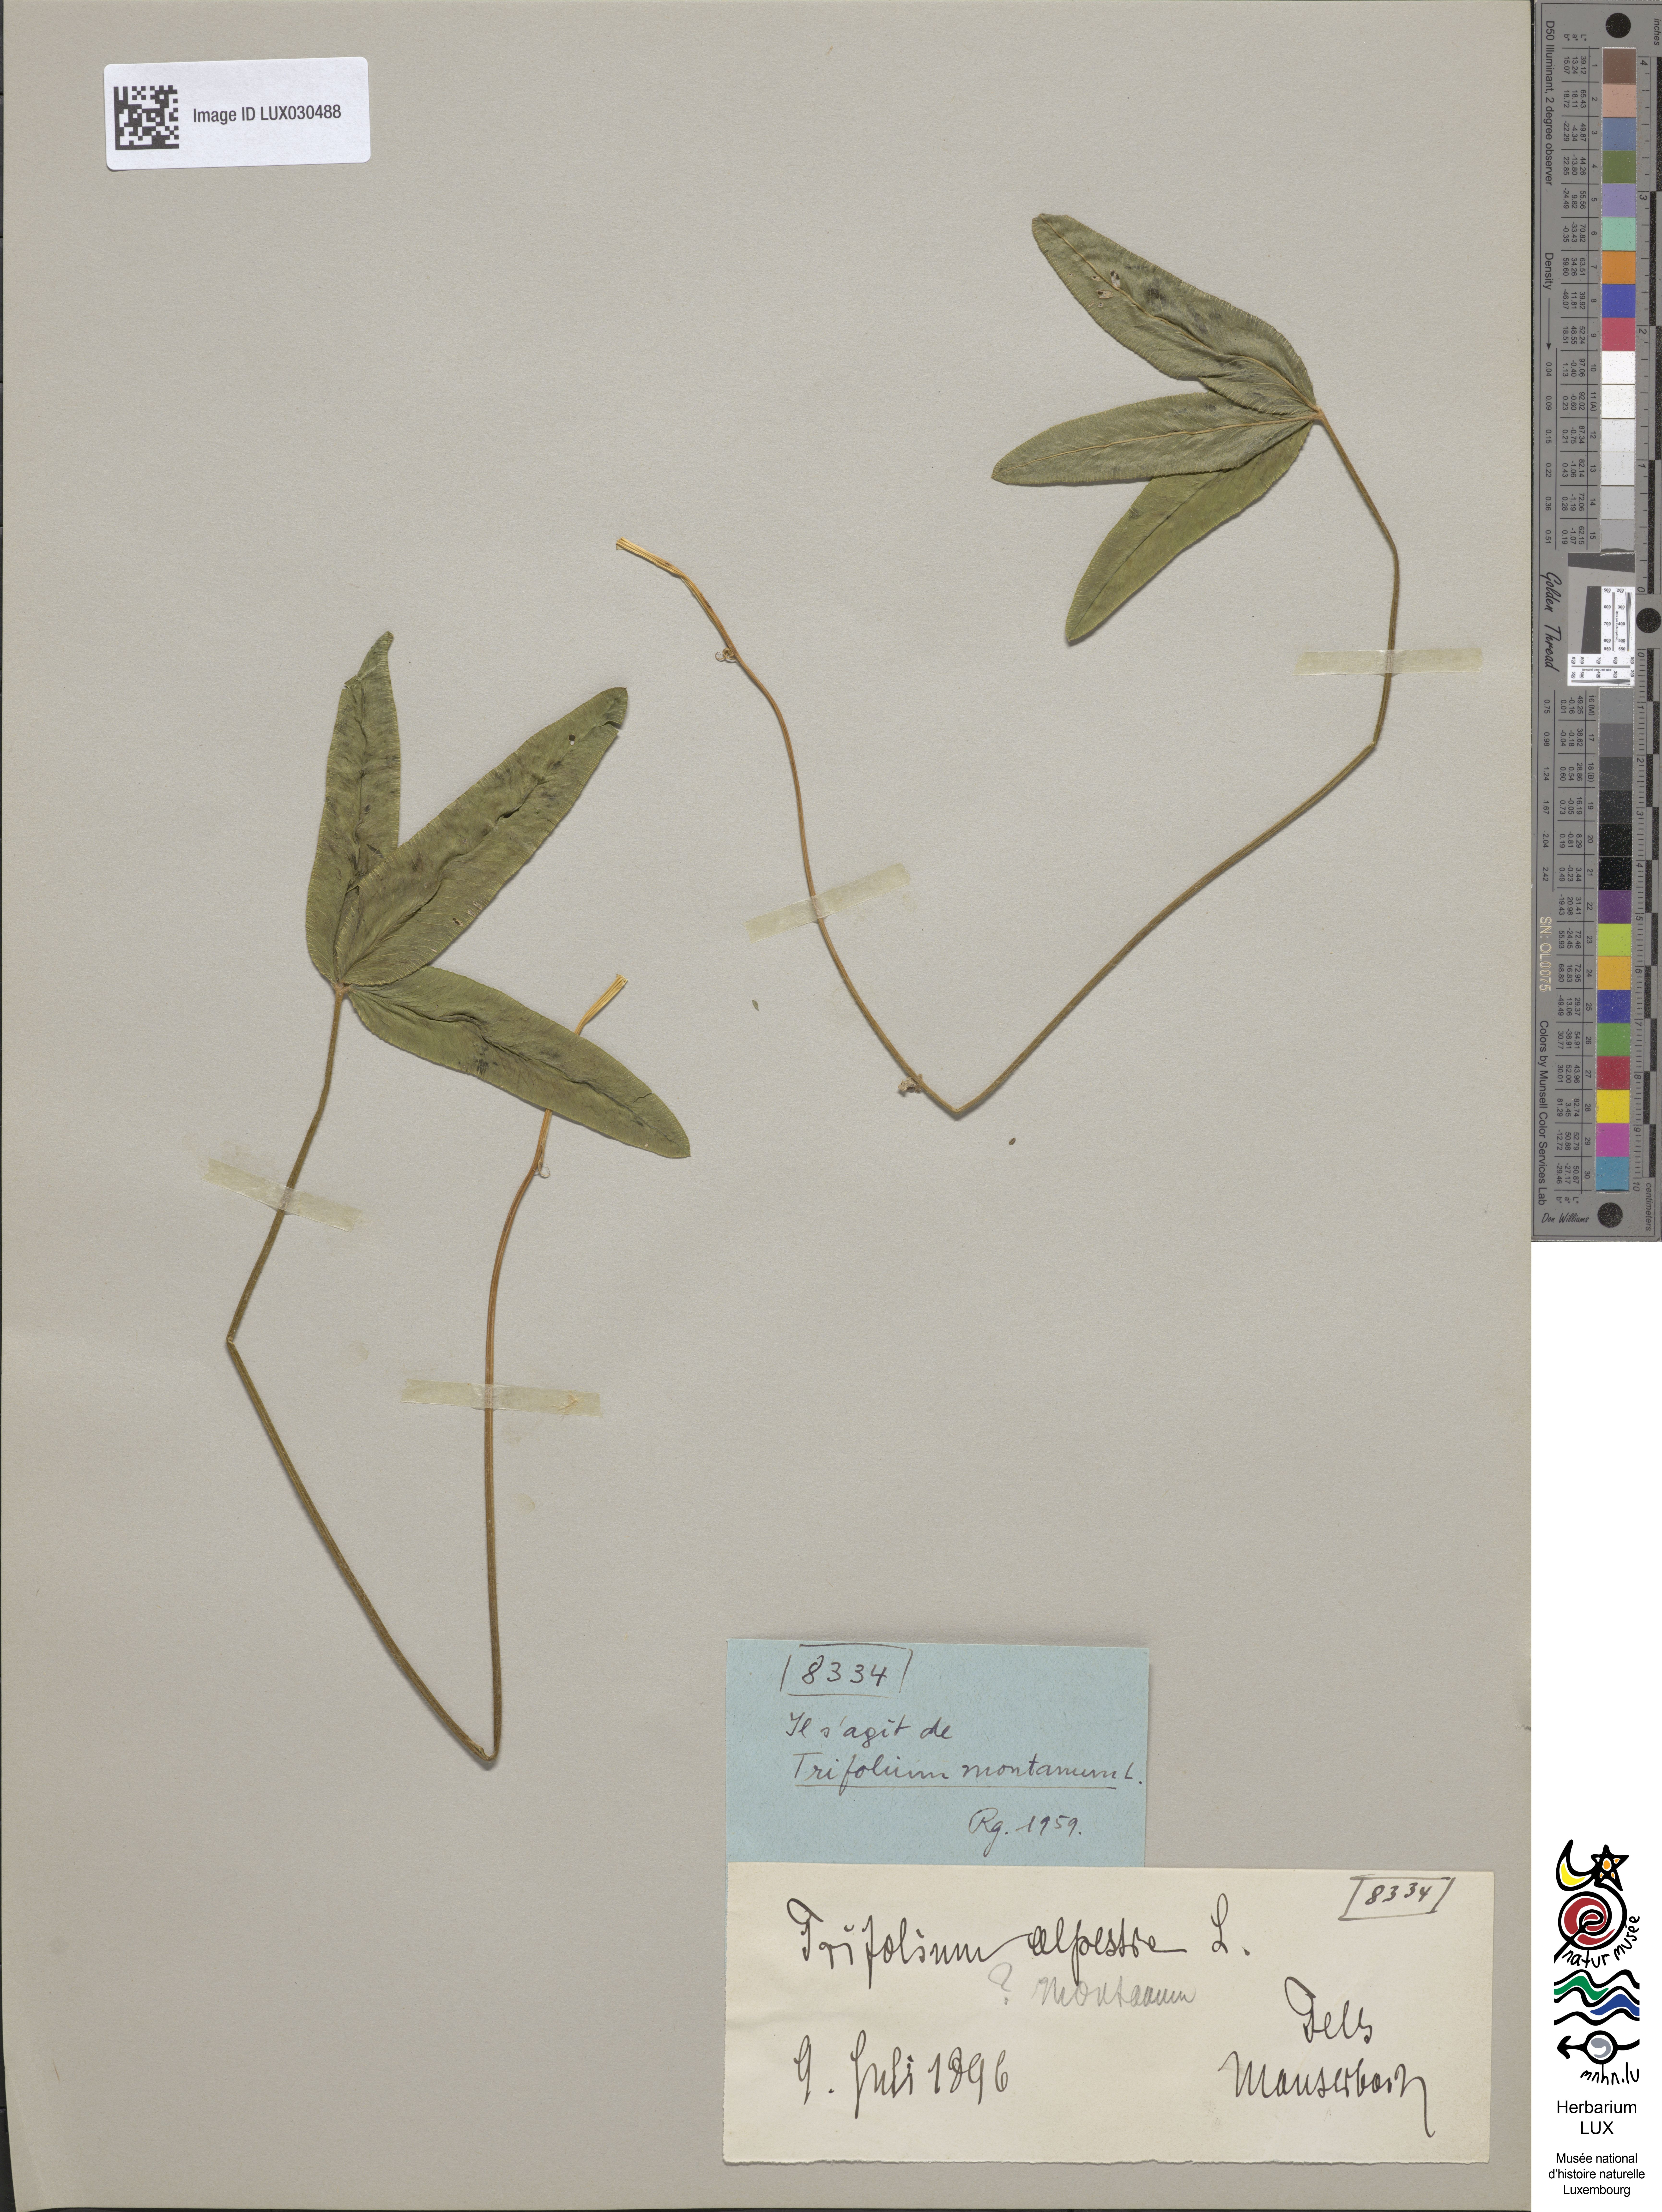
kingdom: Plantae
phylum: Tracheophyta
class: Magnoliopsida
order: Fabales
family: Fabaceae
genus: Trifolium
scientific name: Trifolium alpestre
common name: Owl-head clover
